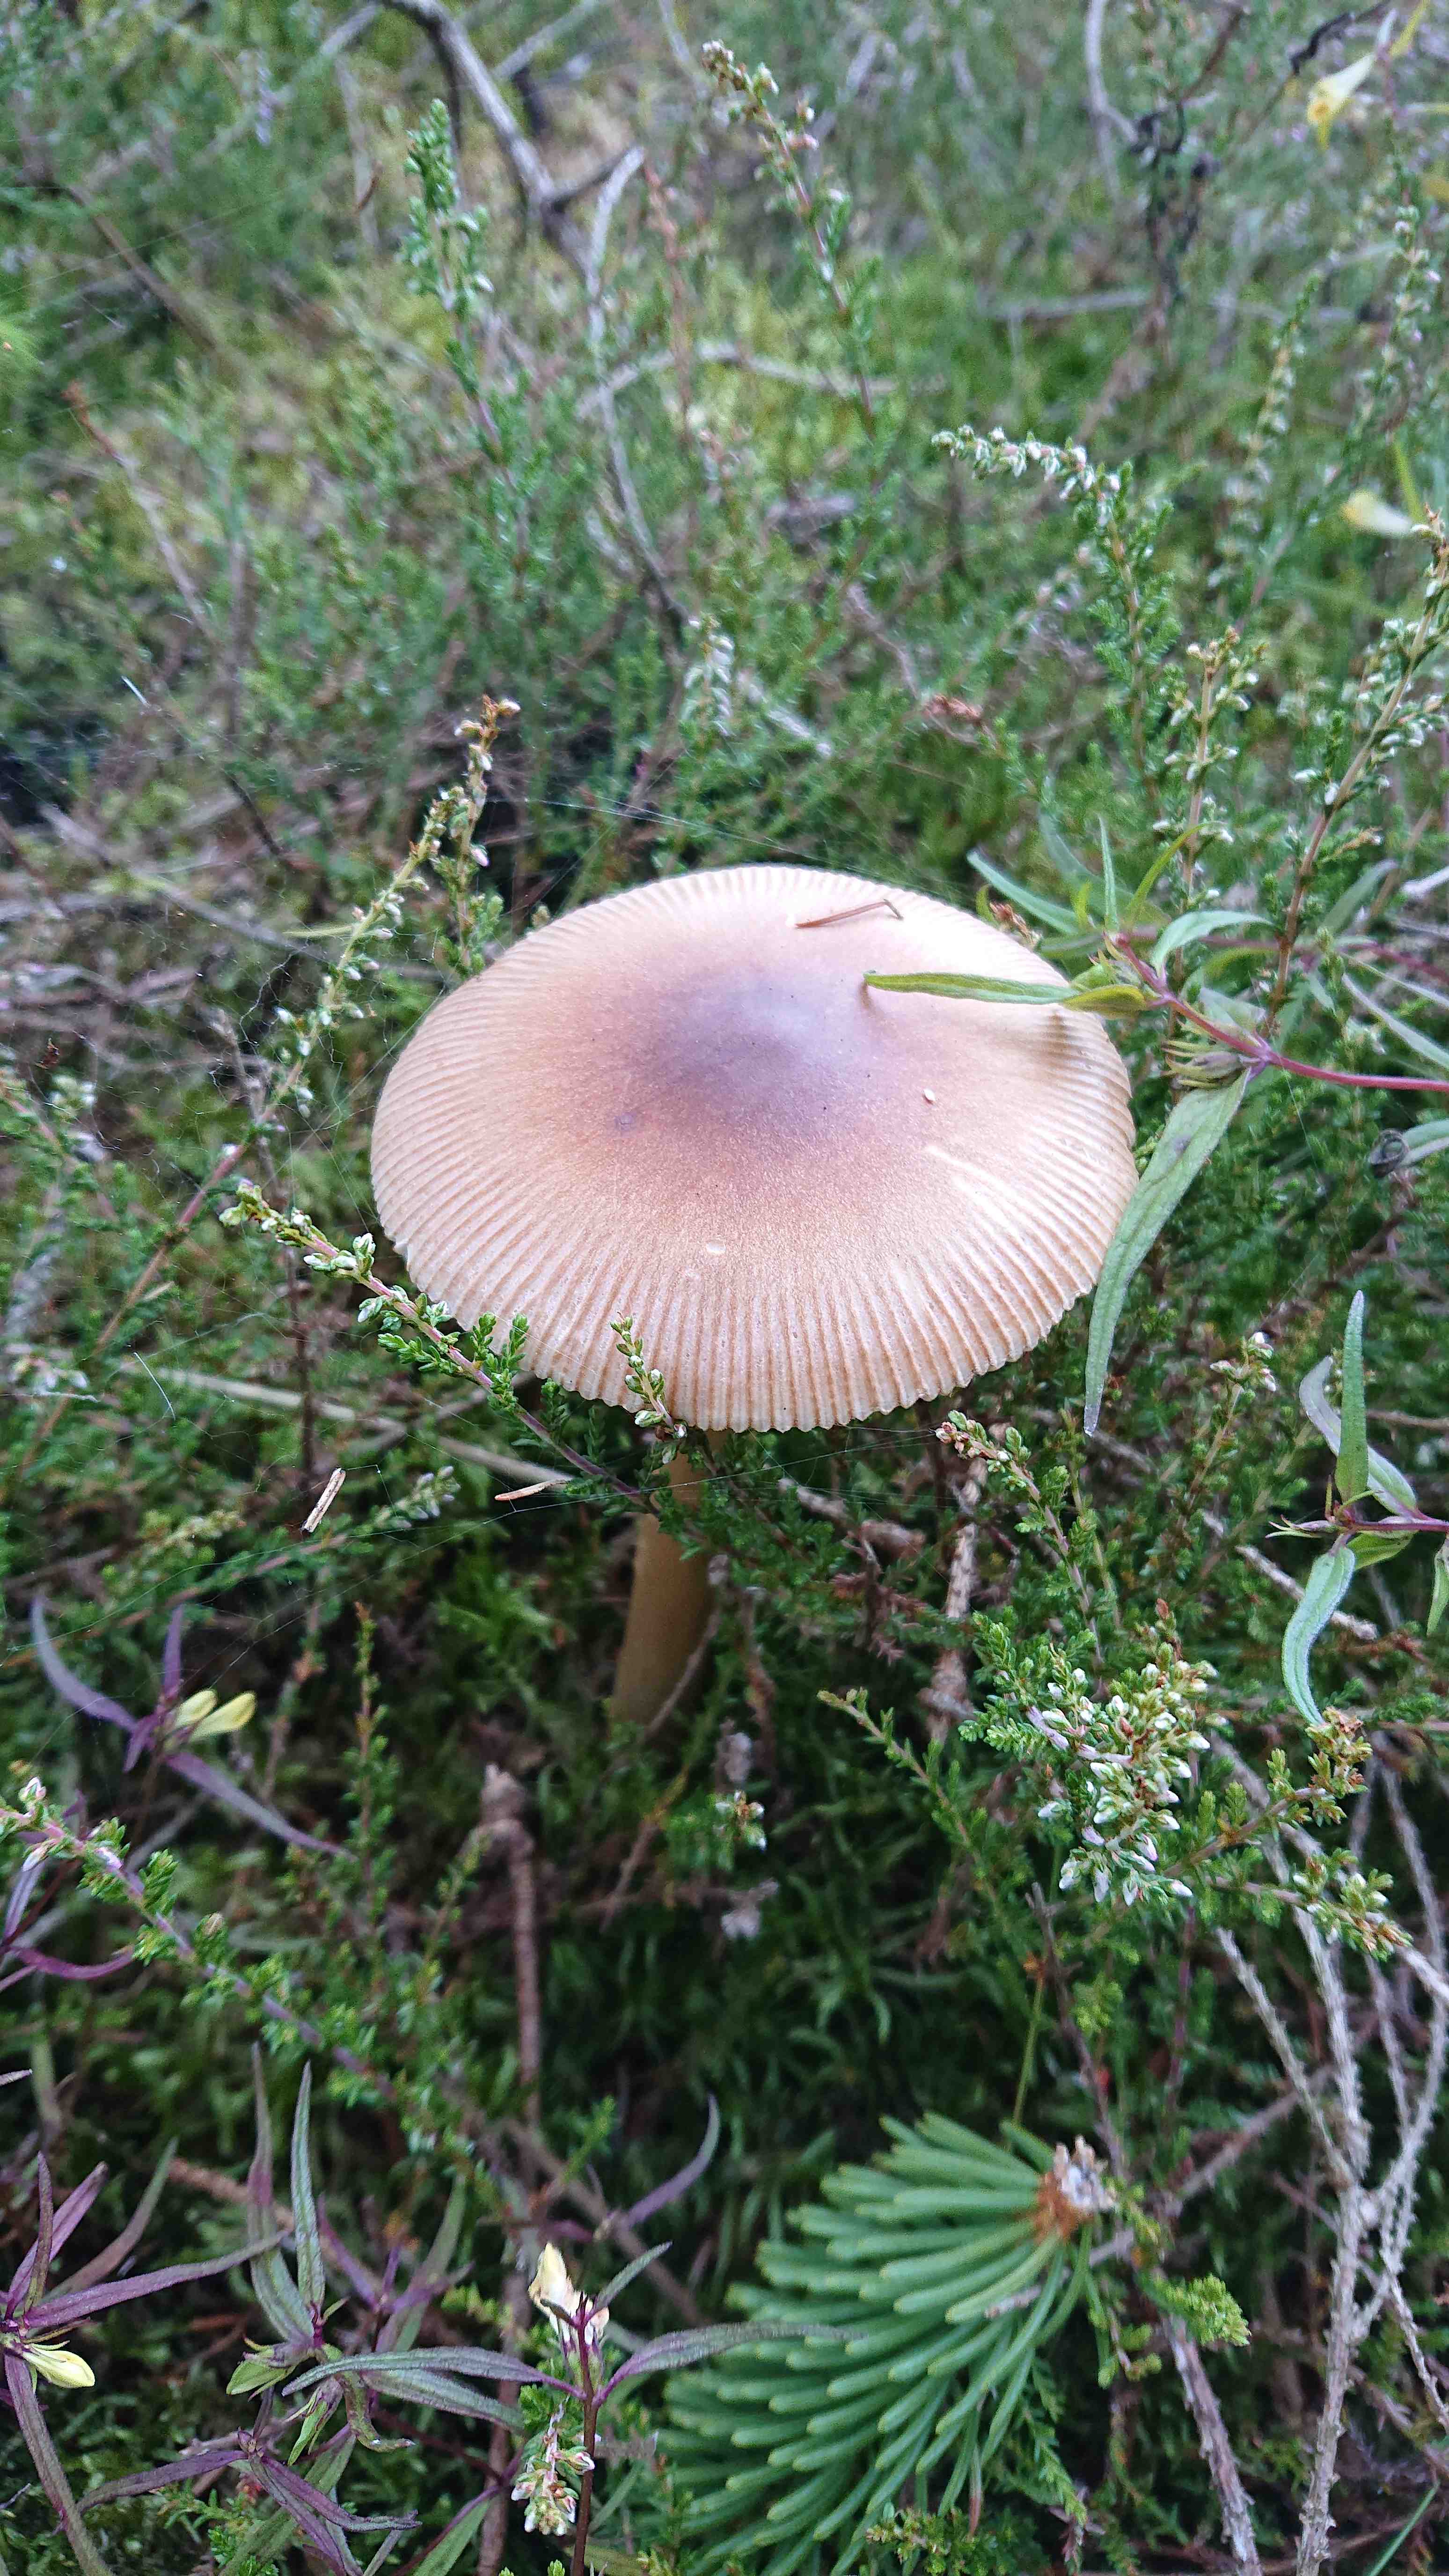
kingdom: Fungi
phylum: Basidiomycota
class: Agaricomycetes
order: Agaricales
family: Amanitaceae
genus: Amanita
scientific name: Amanita fulva
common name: brun kam-fluesvamp
